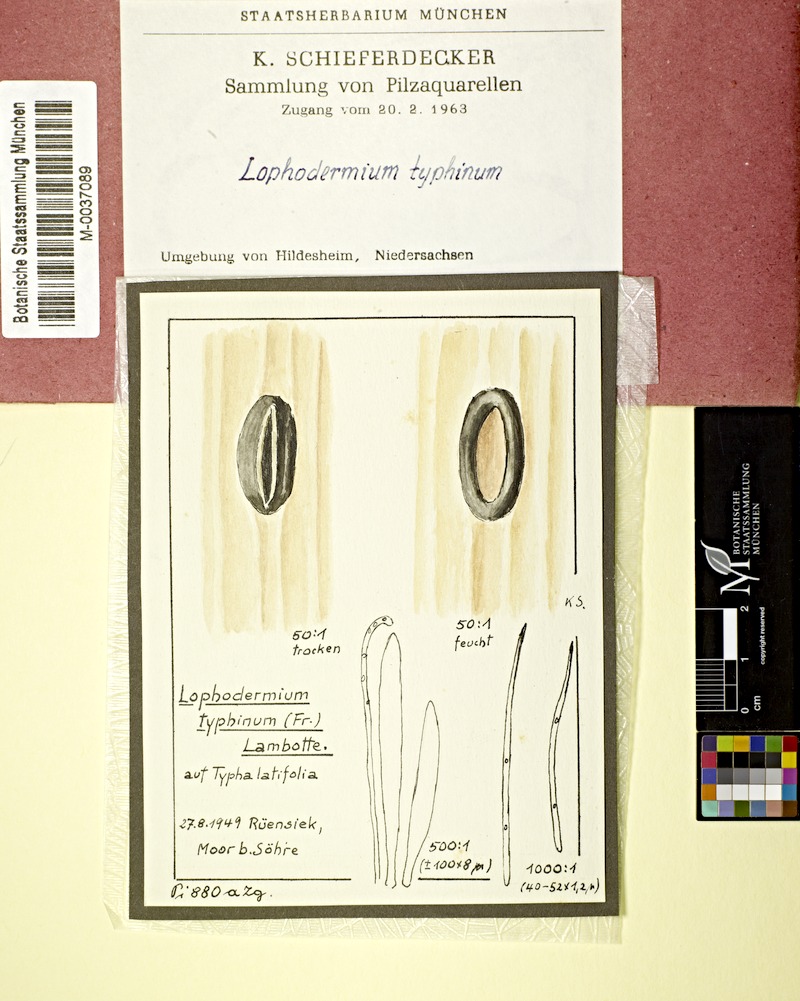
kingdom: Plantae
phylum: Tracheophyta
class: Liliopsida
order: Poales
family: Typhaceae
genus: Typha
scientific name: Typha latifolia
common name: Broadleaf cattail
